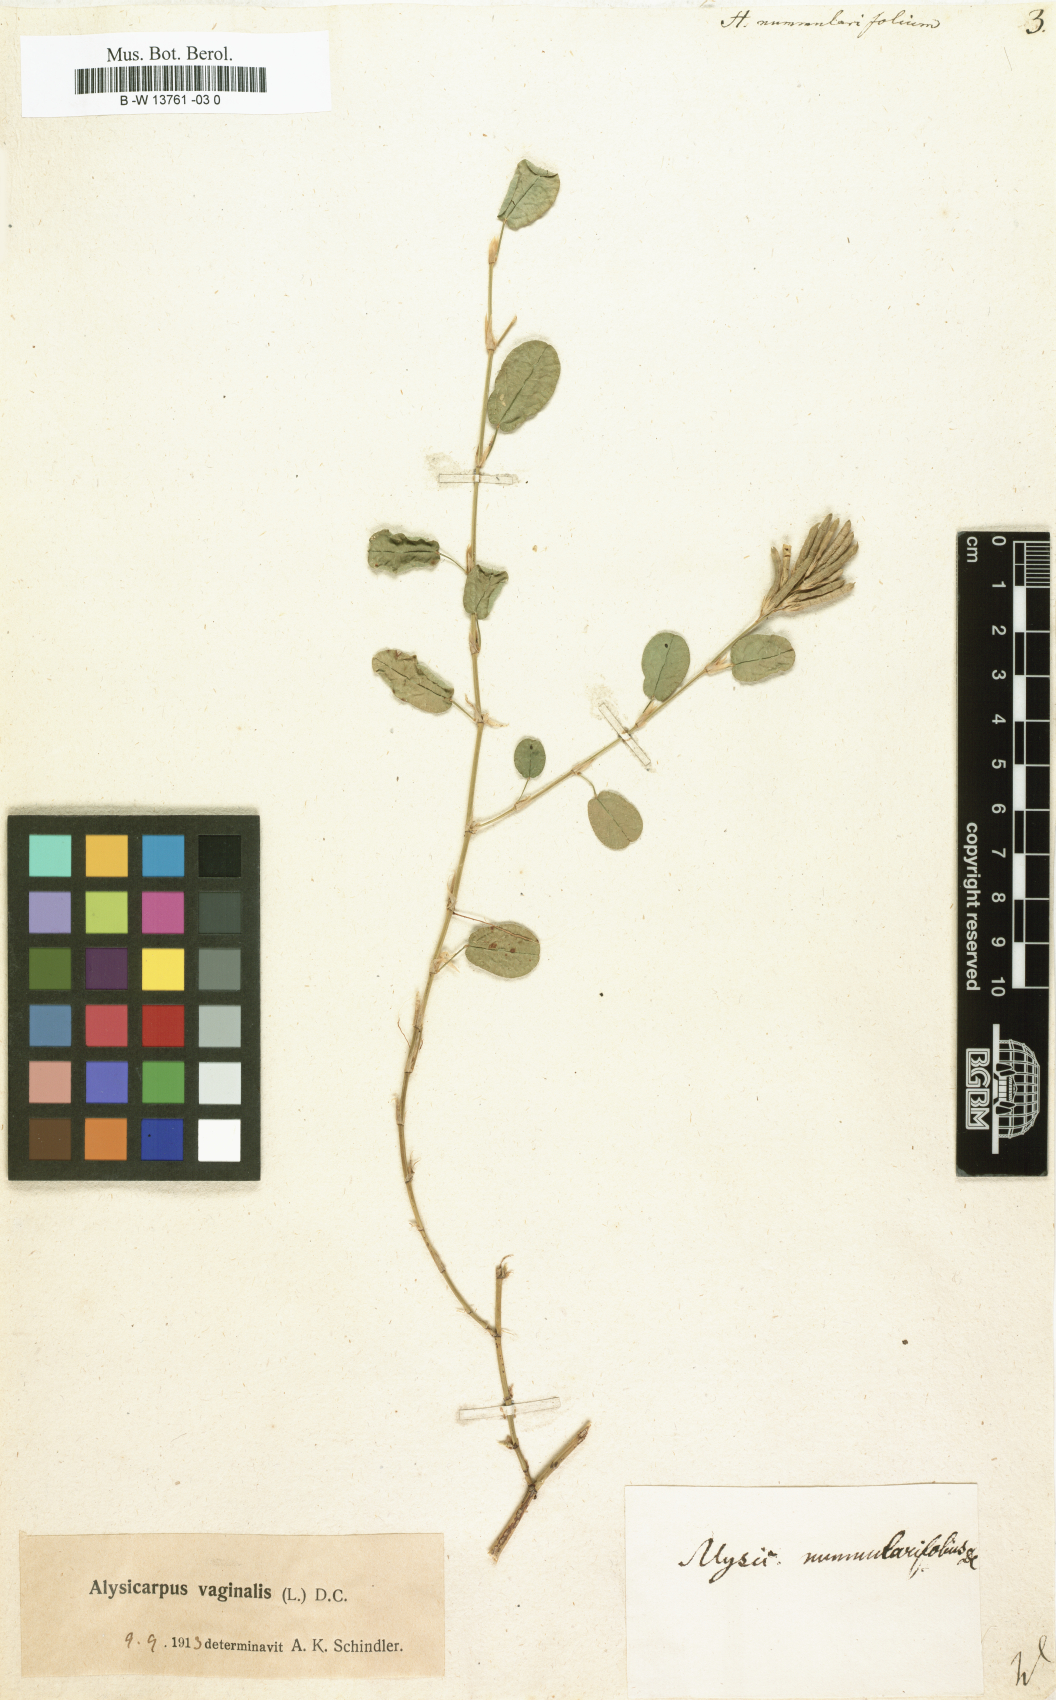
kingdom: Plantae
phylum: Tracheophyta
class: Magnoliopsida
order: Fabales
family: Fabaceae
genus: Indigofera
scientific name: Indigofera nummulariifolia
